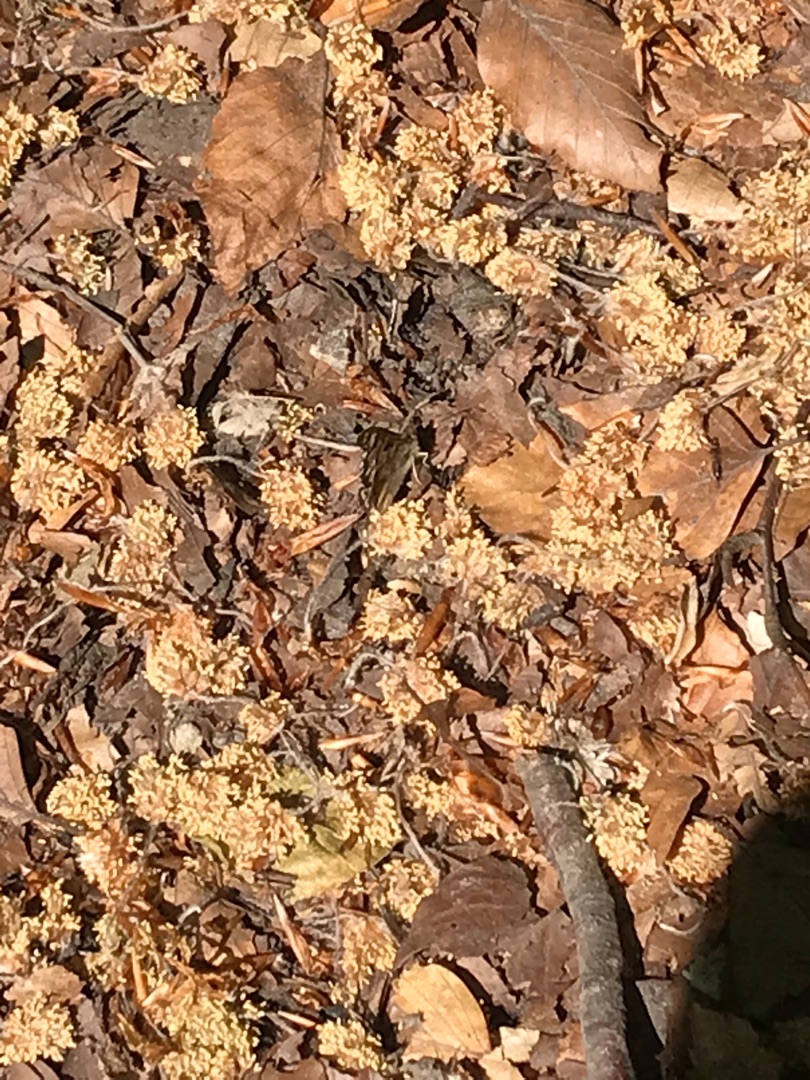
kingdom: Animalia
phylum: Arthropoda
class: Insecta
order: Lepidoptera
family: Nymphalidae
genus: Pararge
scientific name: Pararge aegeria
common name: Skovrandøje
